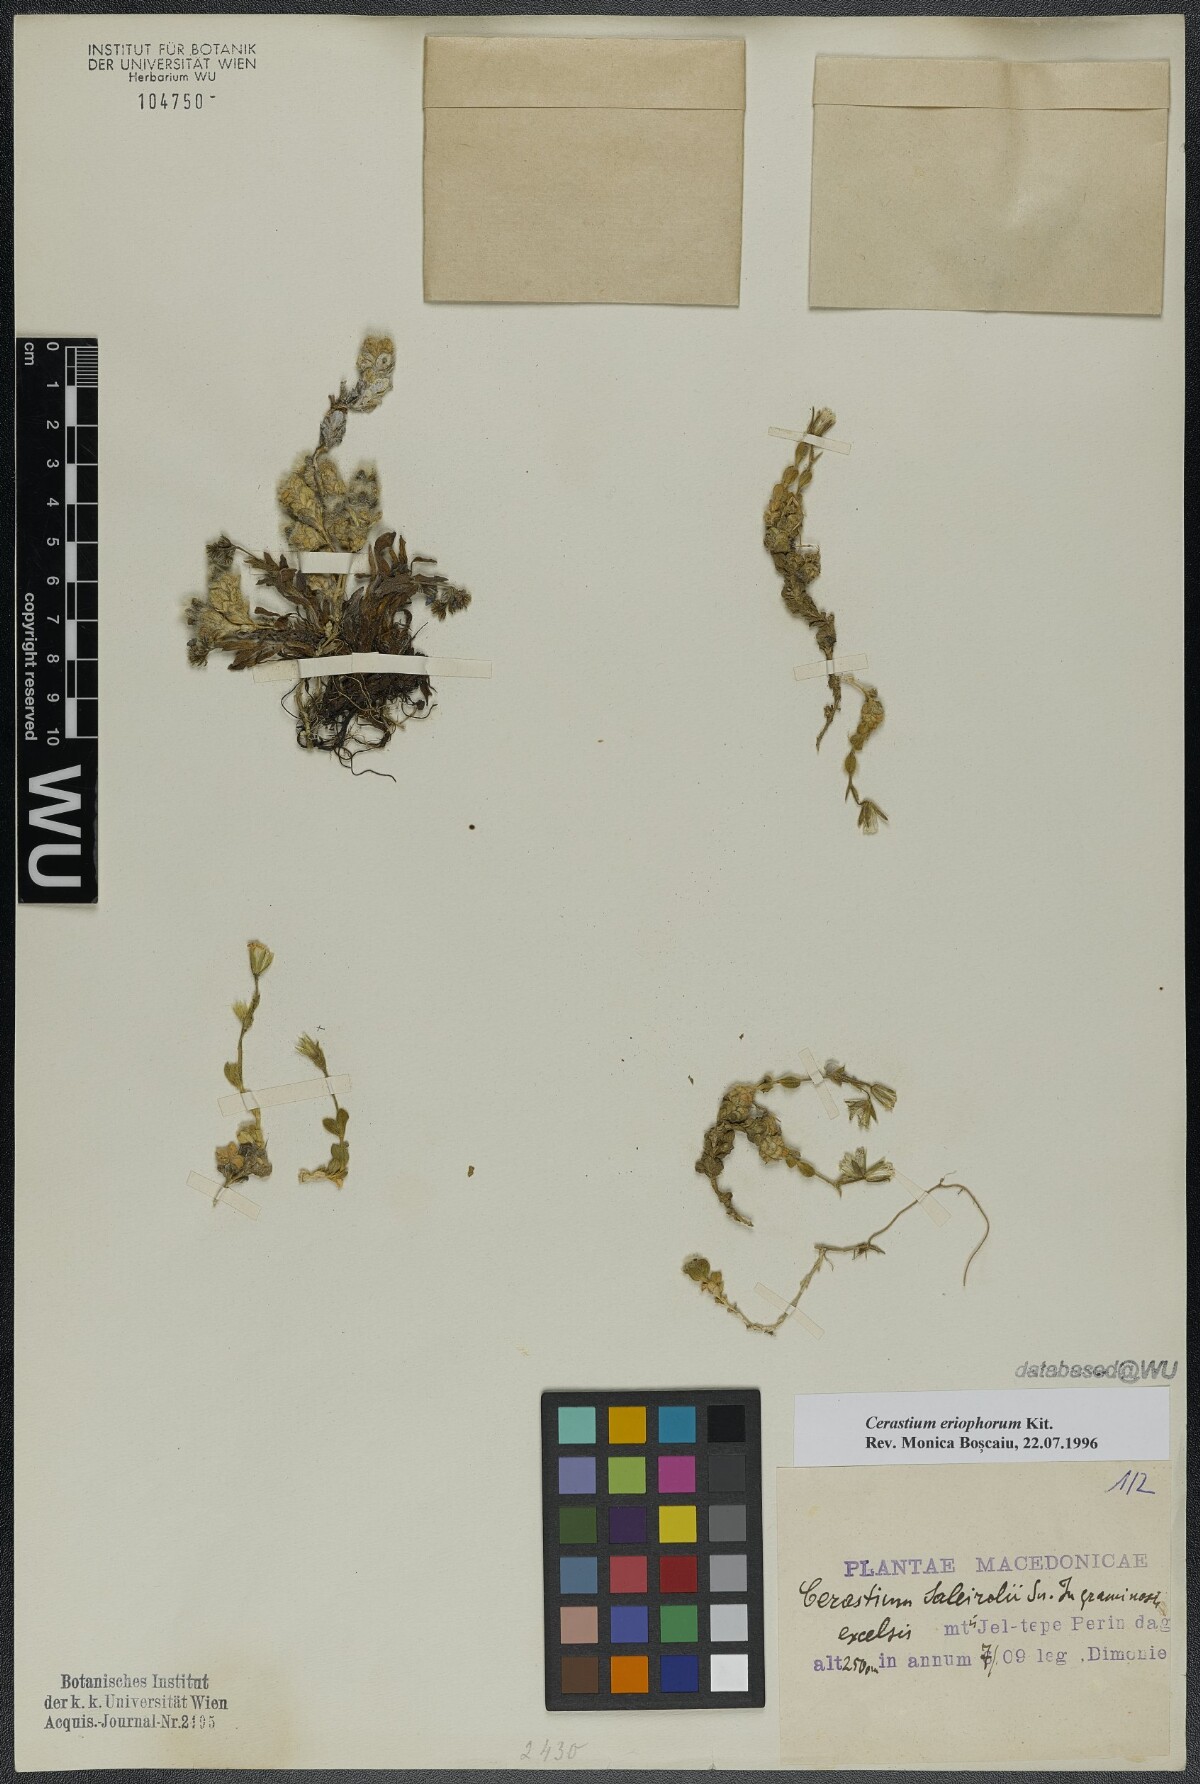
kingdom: Plantae
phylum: Tracheophyta
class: Magnoliopsida
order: Caryophyllales
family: Caryophyllaceae
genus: Cerastium
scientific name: Cerastium eriophorum
